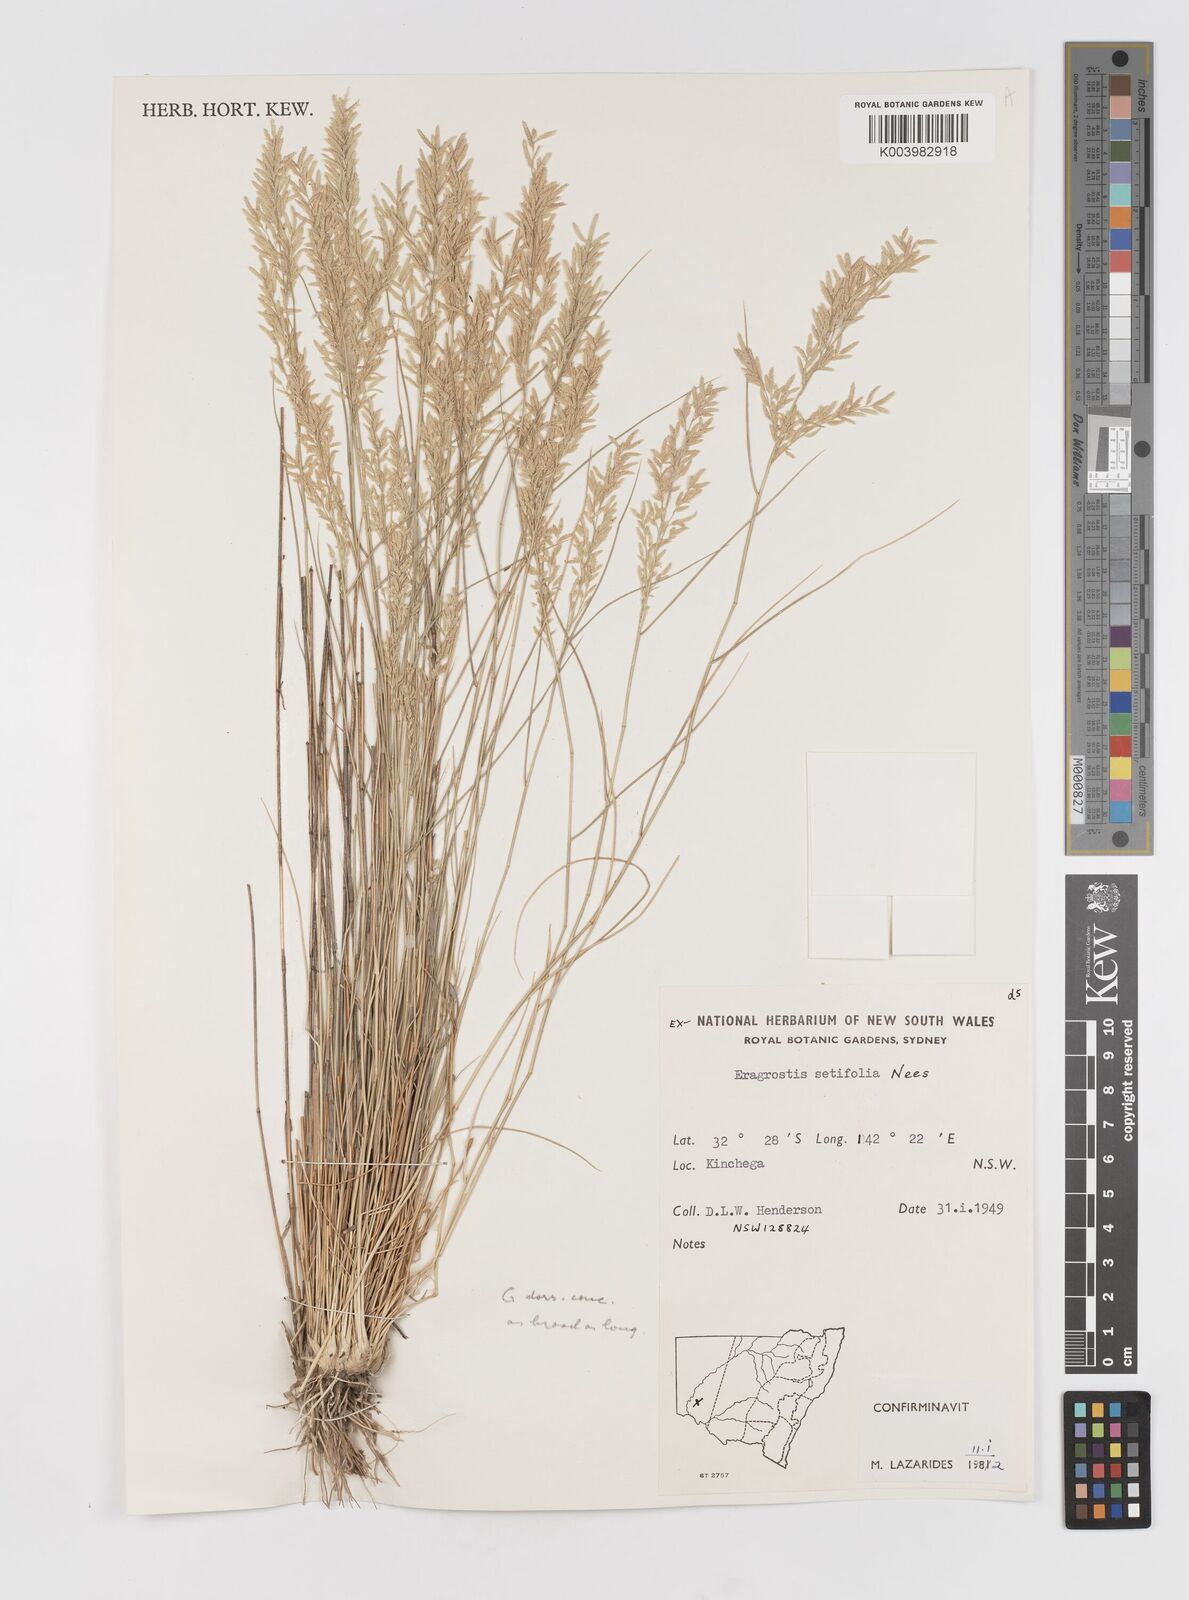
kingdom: Plantae
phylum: Tracheophyta
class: Liliopsida
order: Poales
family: Poaceae
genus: Eragrostis
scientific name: Eragrostis setifolia
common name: Bristleleaf lovegrass
